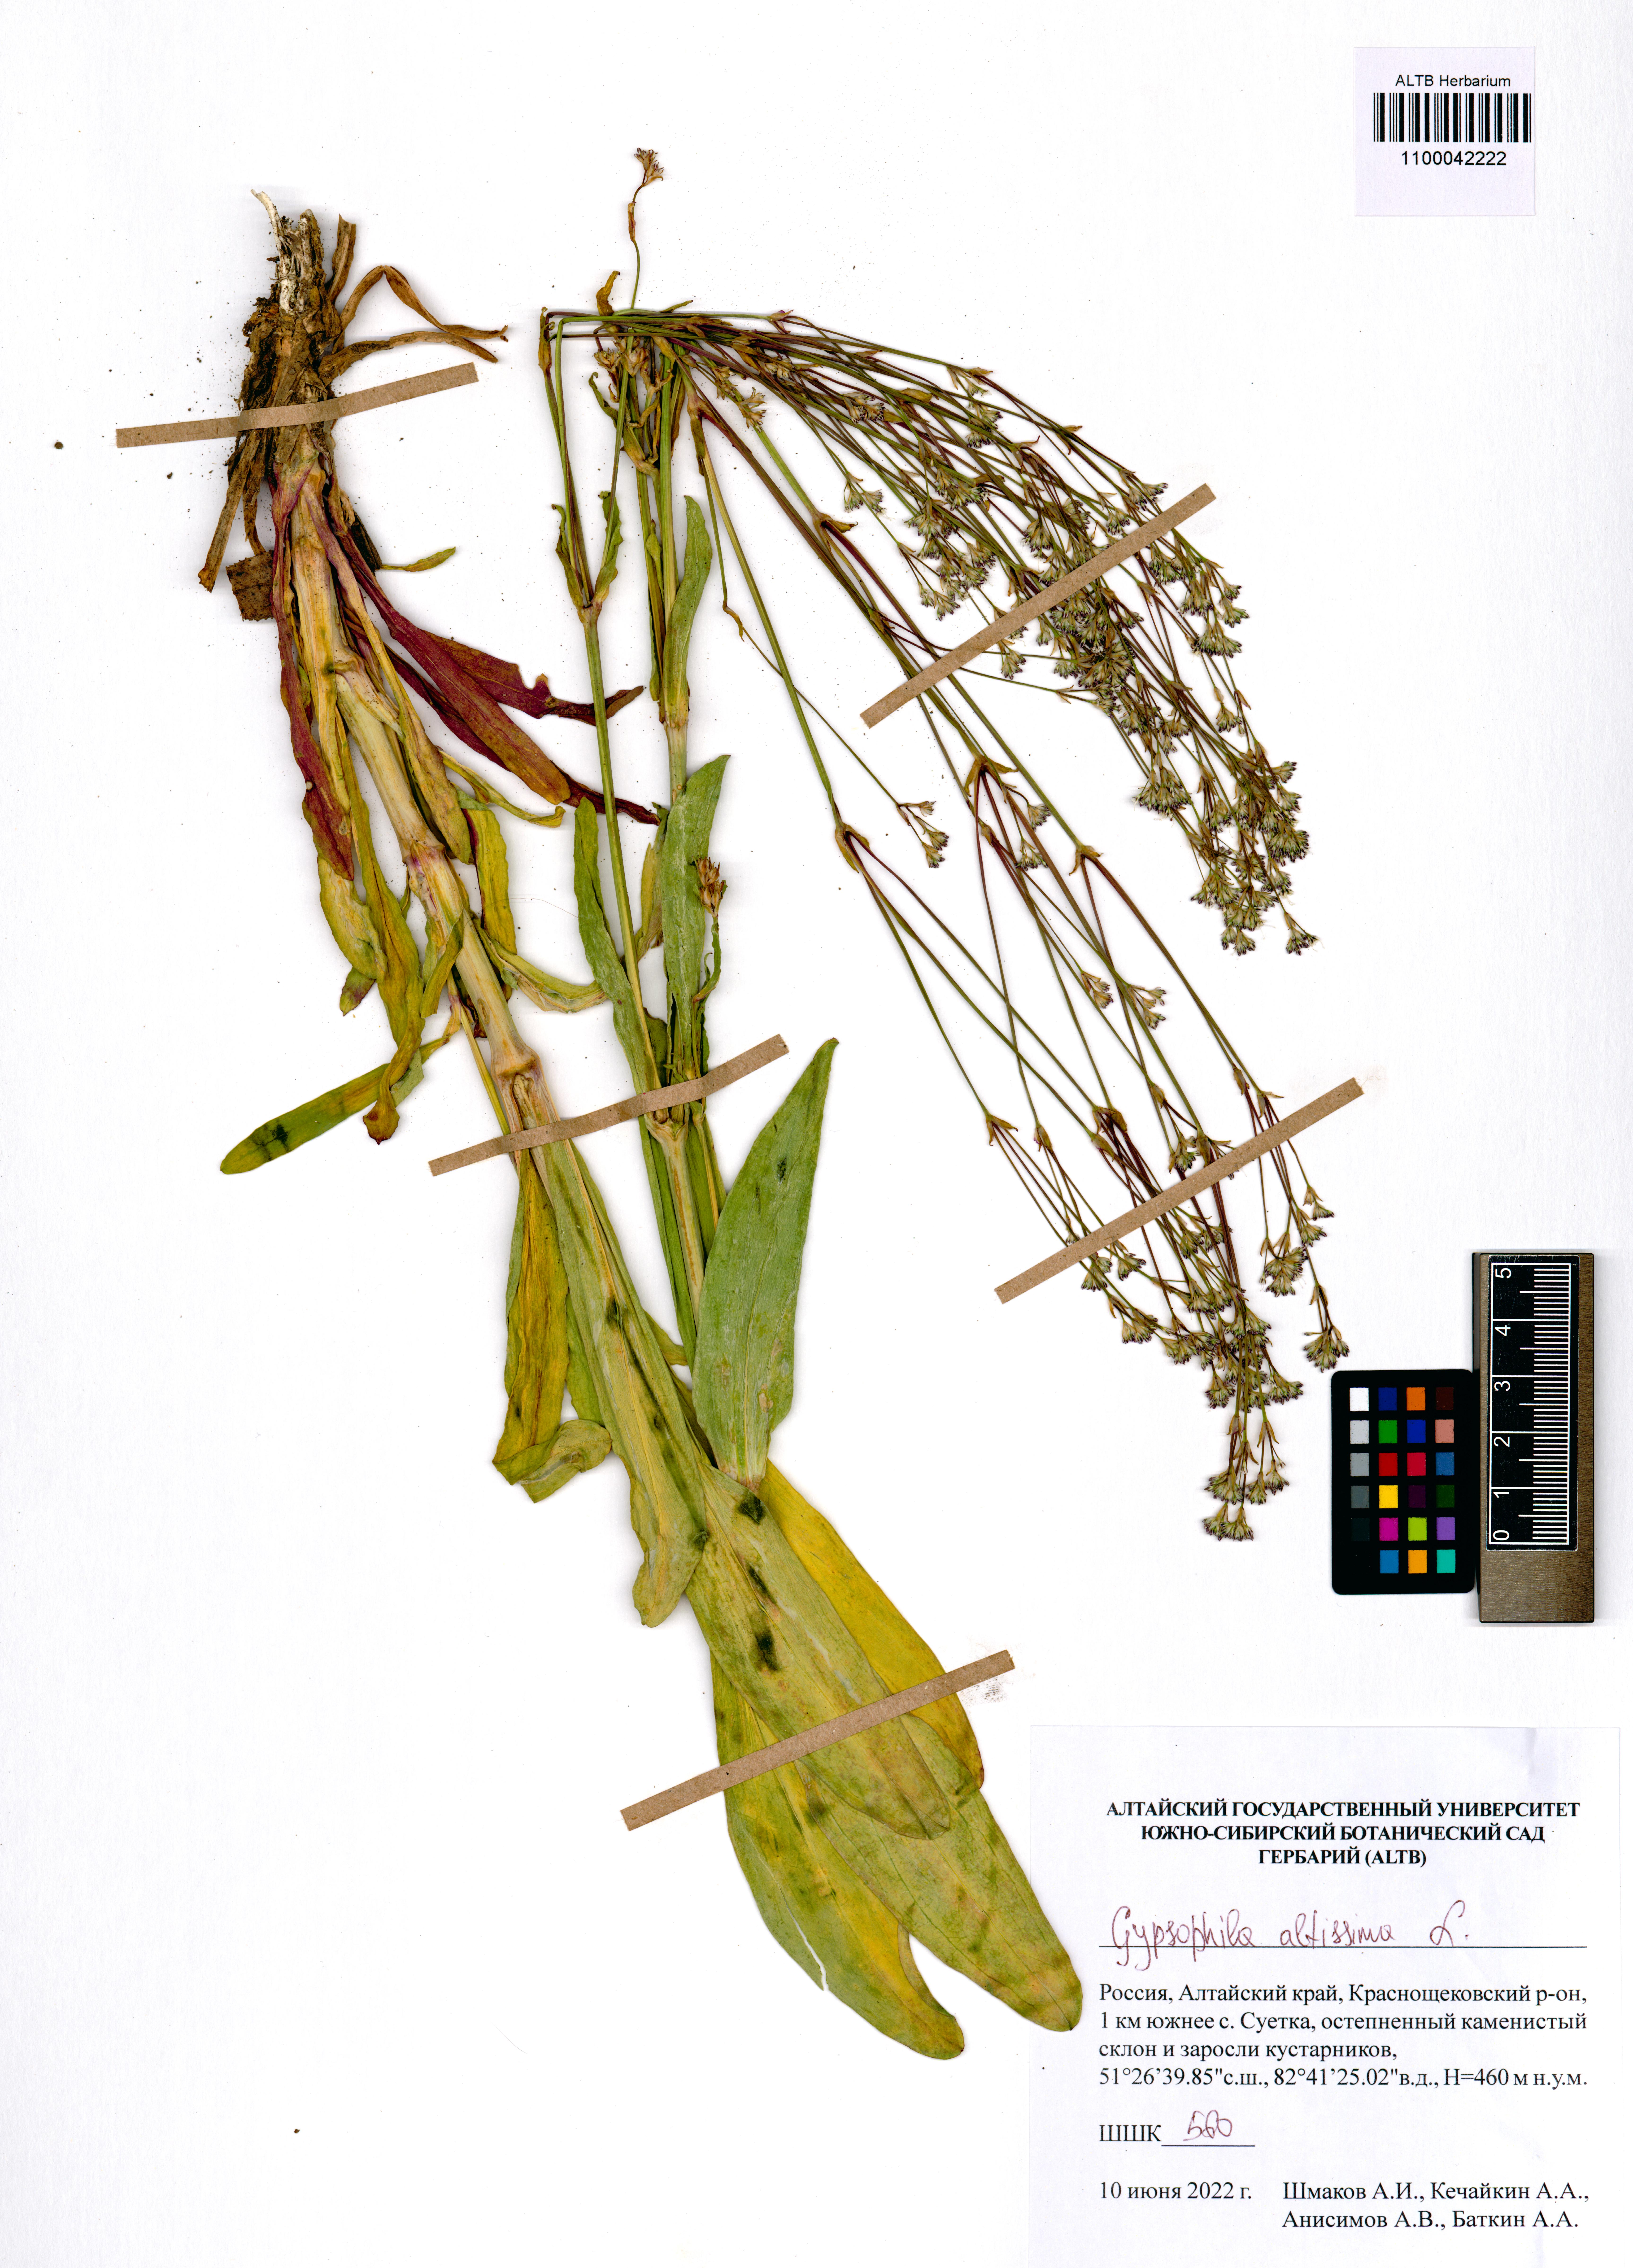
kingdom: Plantae
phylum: Tracheophyta
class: Magnoliopsida
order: Caryophyllales
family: Caryophyllaceae
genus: Gypsophila
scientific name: Gypsophila altissima
